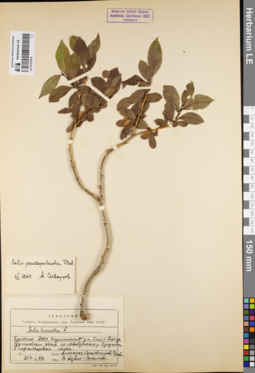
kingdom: Plantae
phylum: Tracheophyta
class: Magnoliopsida
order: Malpighiales
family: Salicaceae
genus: Salix
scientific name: Salix pseudopentandra
